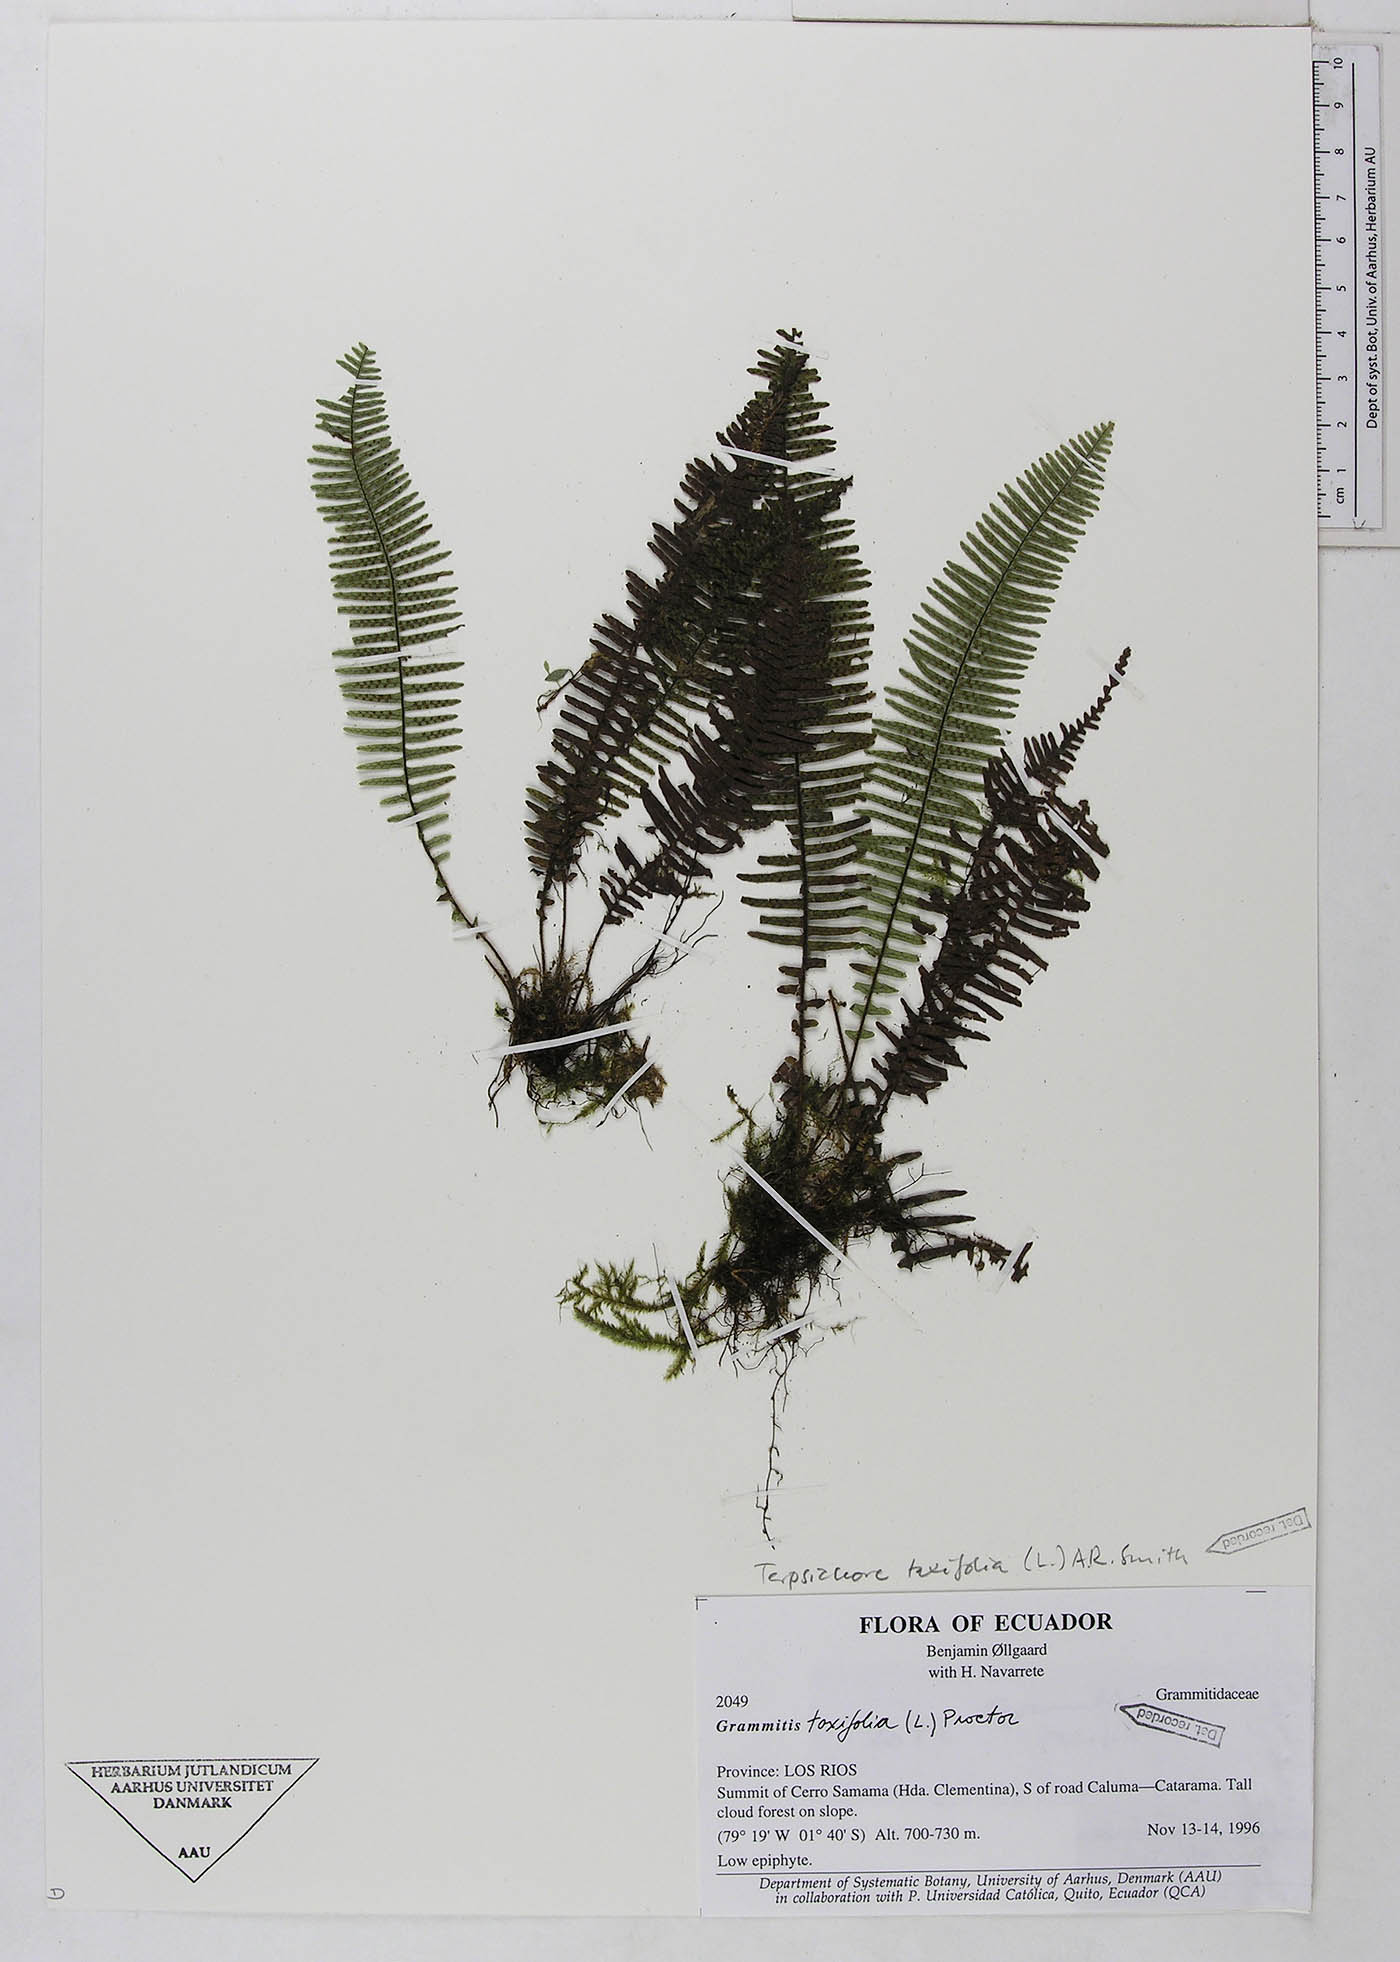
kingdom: Plantae
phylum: Tracheophyta
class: Polypodiopsida
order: Polypodiales
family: Polypodiaceae
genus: Mycopteris
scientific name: Mycopteris taxifolia
